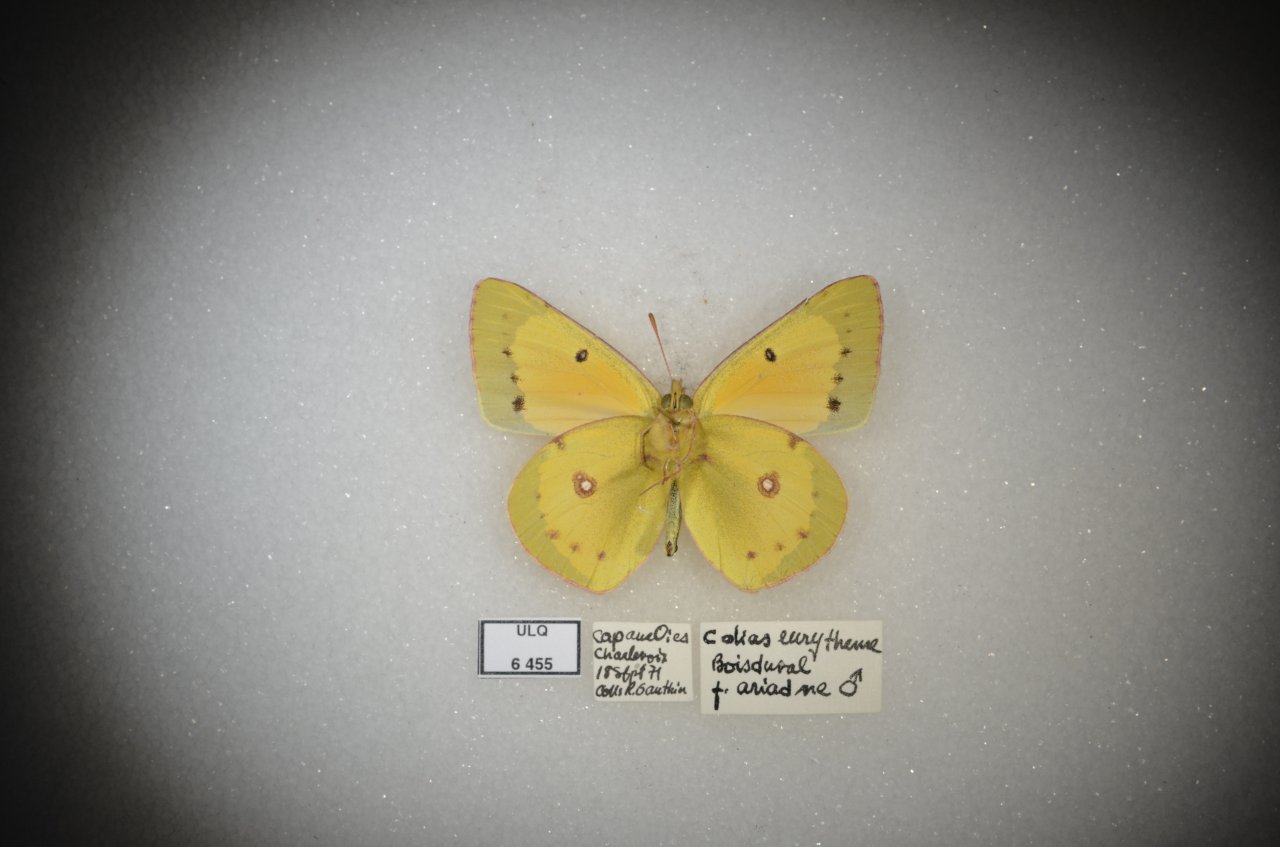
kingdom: Animalia
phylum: Arthropoda
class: Insecta
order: Lepidoptera
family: Pieridae
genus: Colias
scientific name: Colias eurytheme
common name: Orange Sulphur
